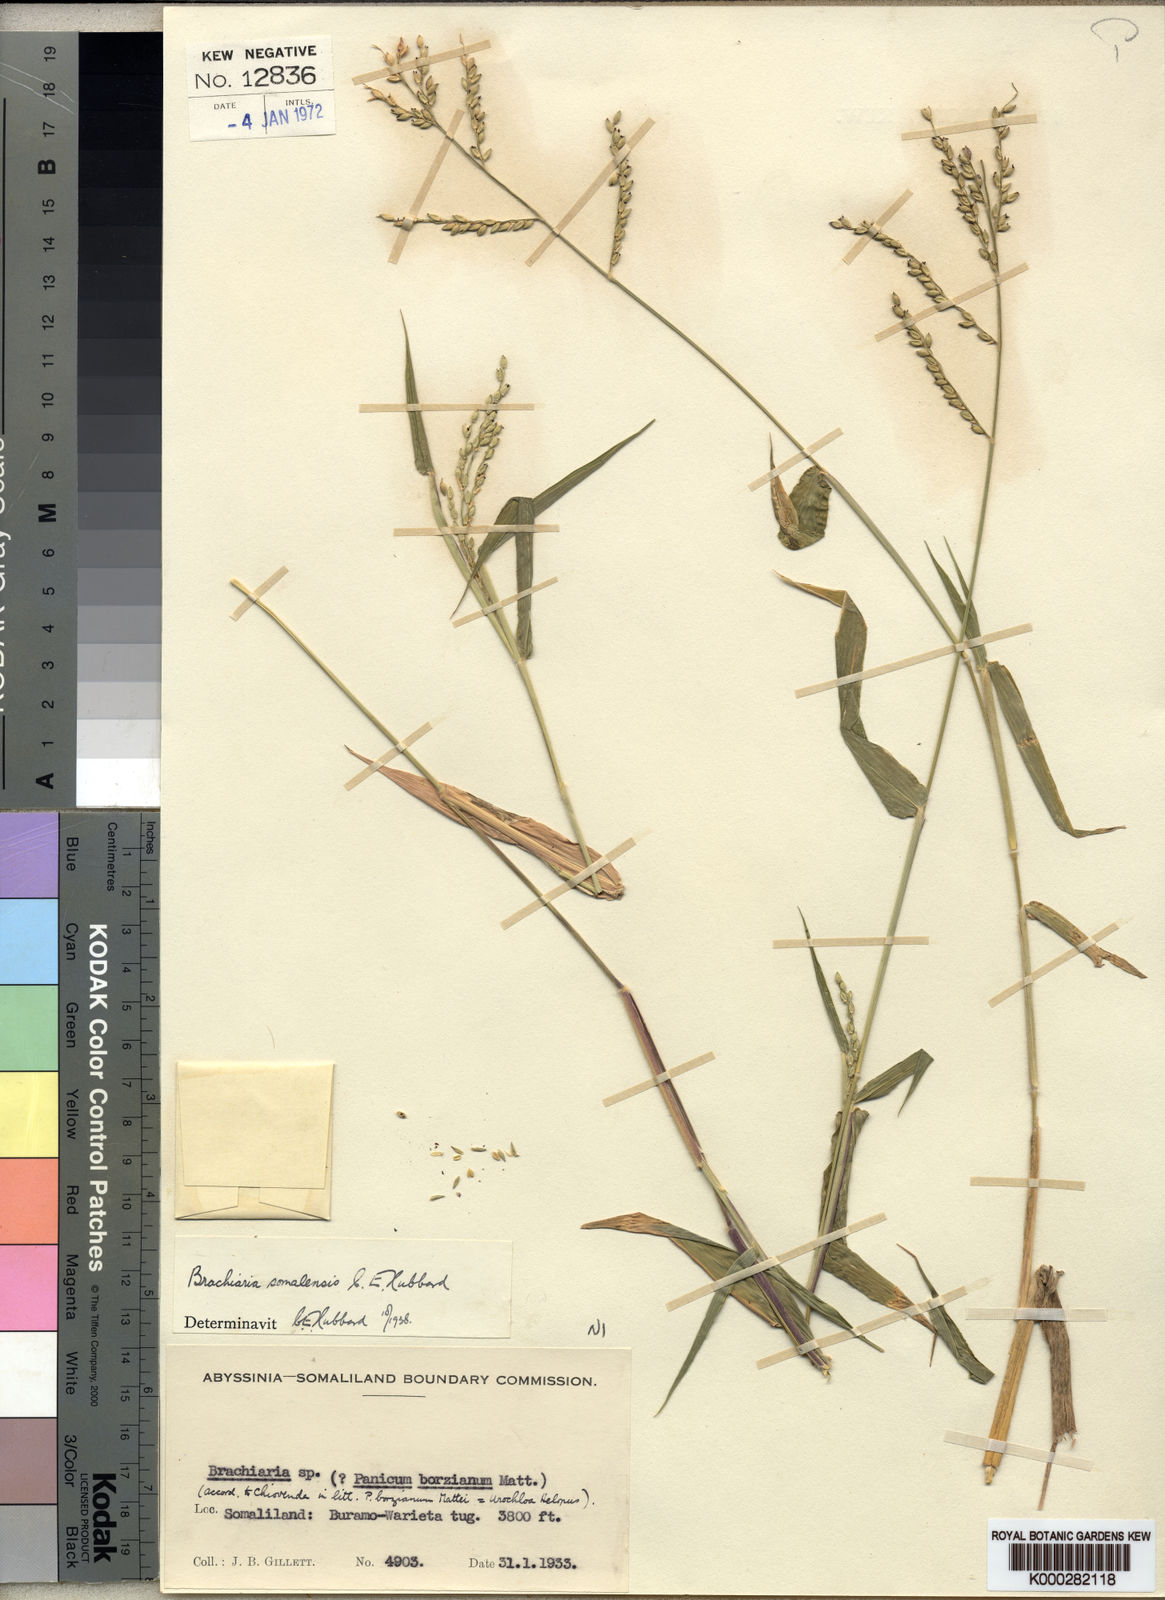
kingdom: Plantae
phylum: Tracheophyta
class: Liliopsida
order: Poales
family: Poaceae
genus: Urochloa
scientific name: Urochloa ovalis
